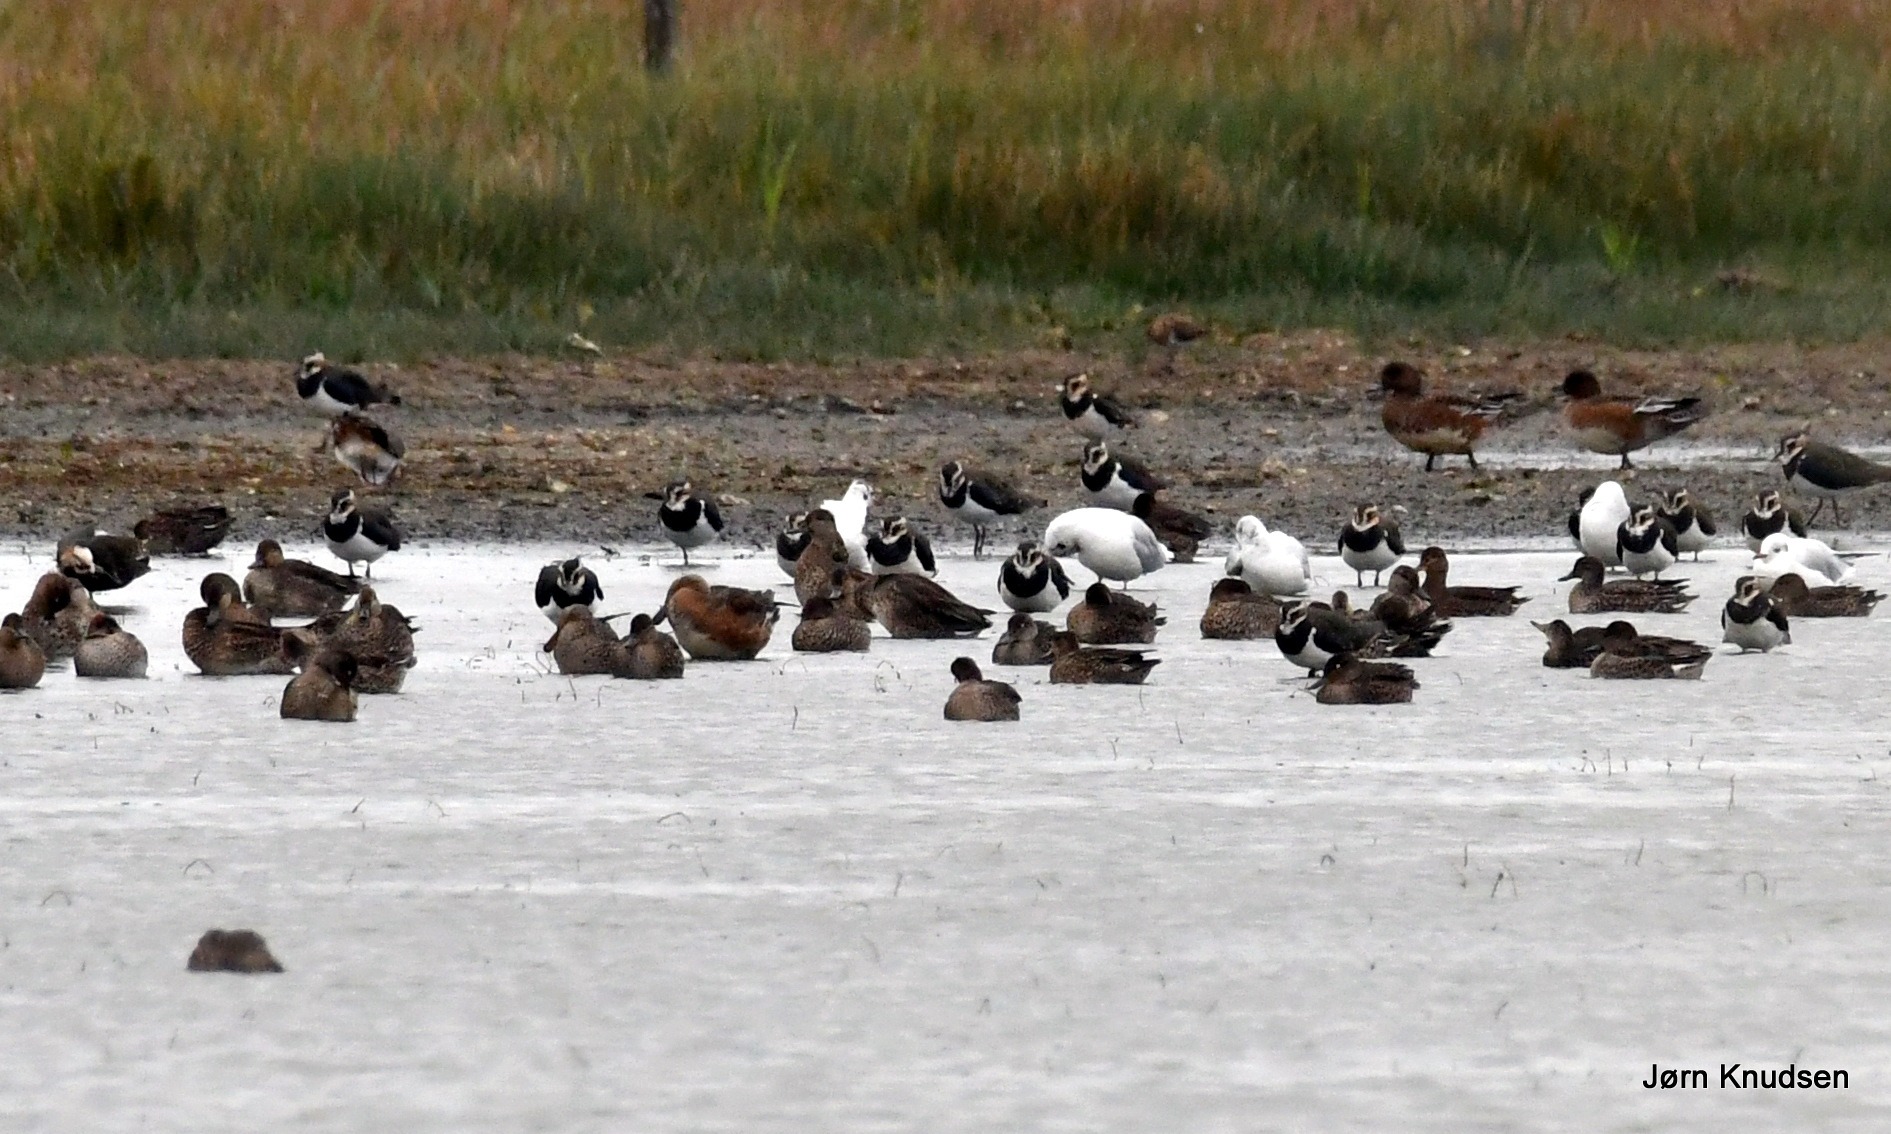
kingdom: Animalia
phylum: Chordata
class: Aves
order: Anseriformes
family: Anatidae
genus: Anas
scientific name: Anas crecca
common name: Krikand
